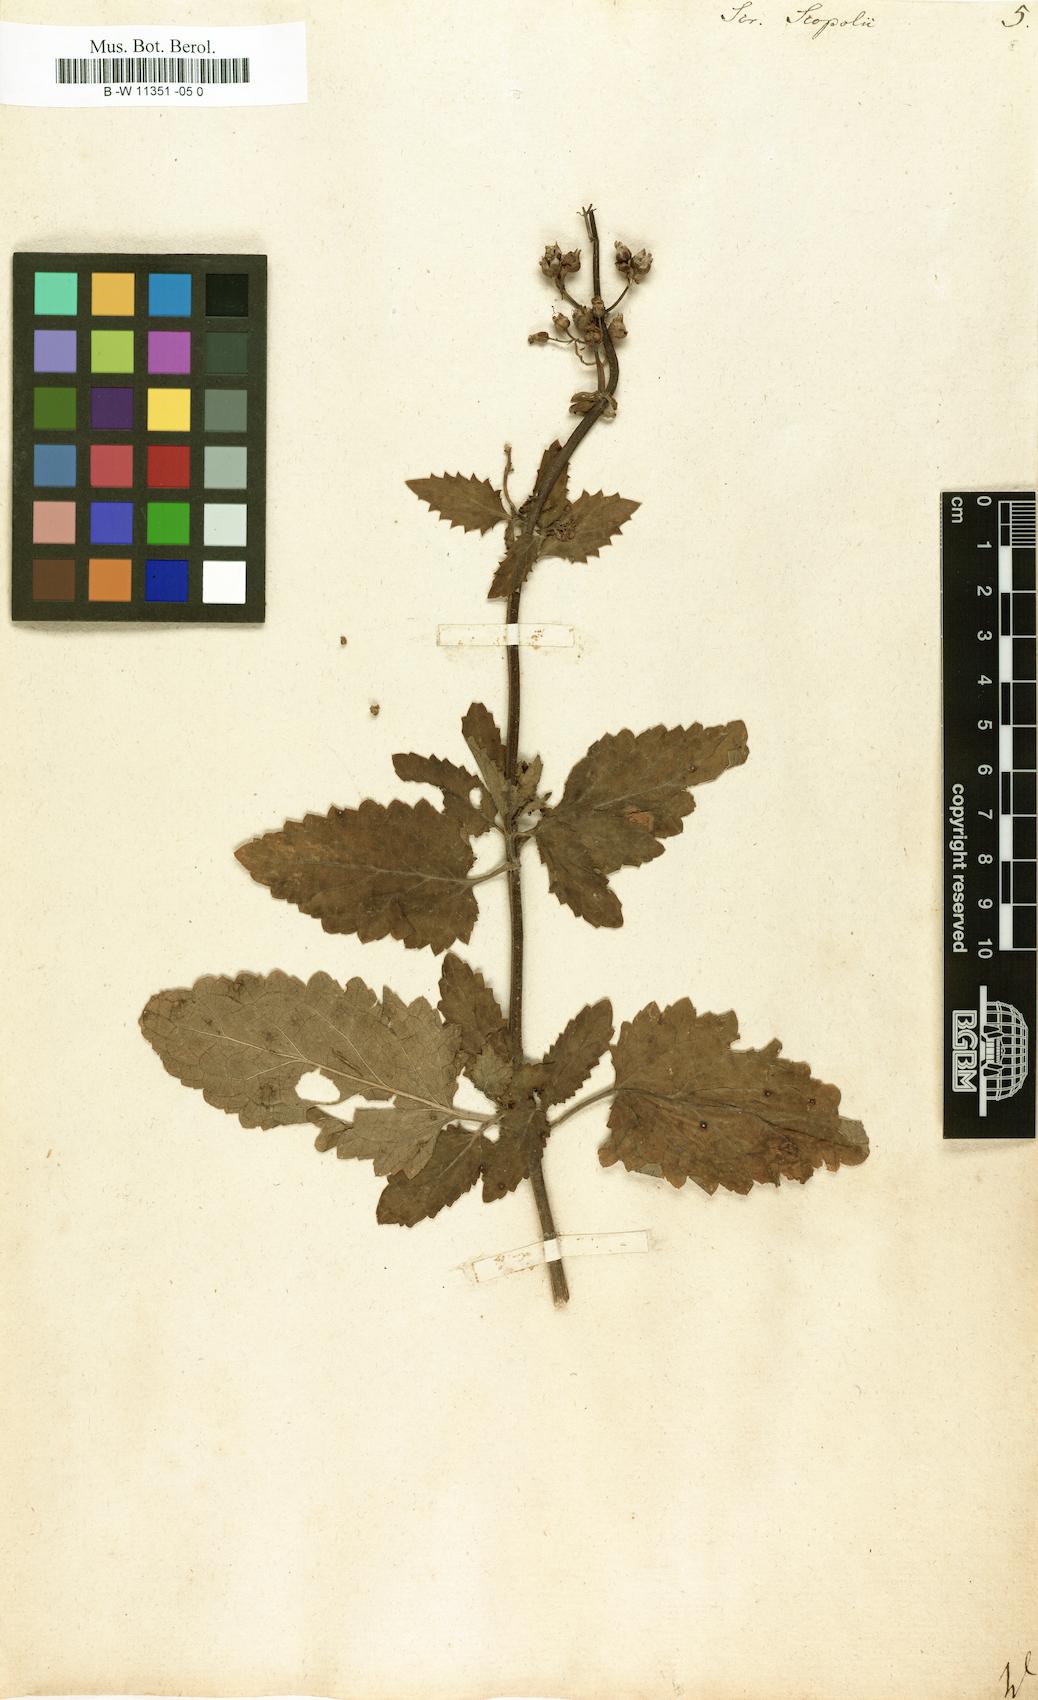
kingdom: Plantae
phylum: Tracheophyta
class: Magnoliopsida
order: Lamiales
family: Scrophulariaceae
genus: Scrophularia
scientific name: Scrophularia scopolii
